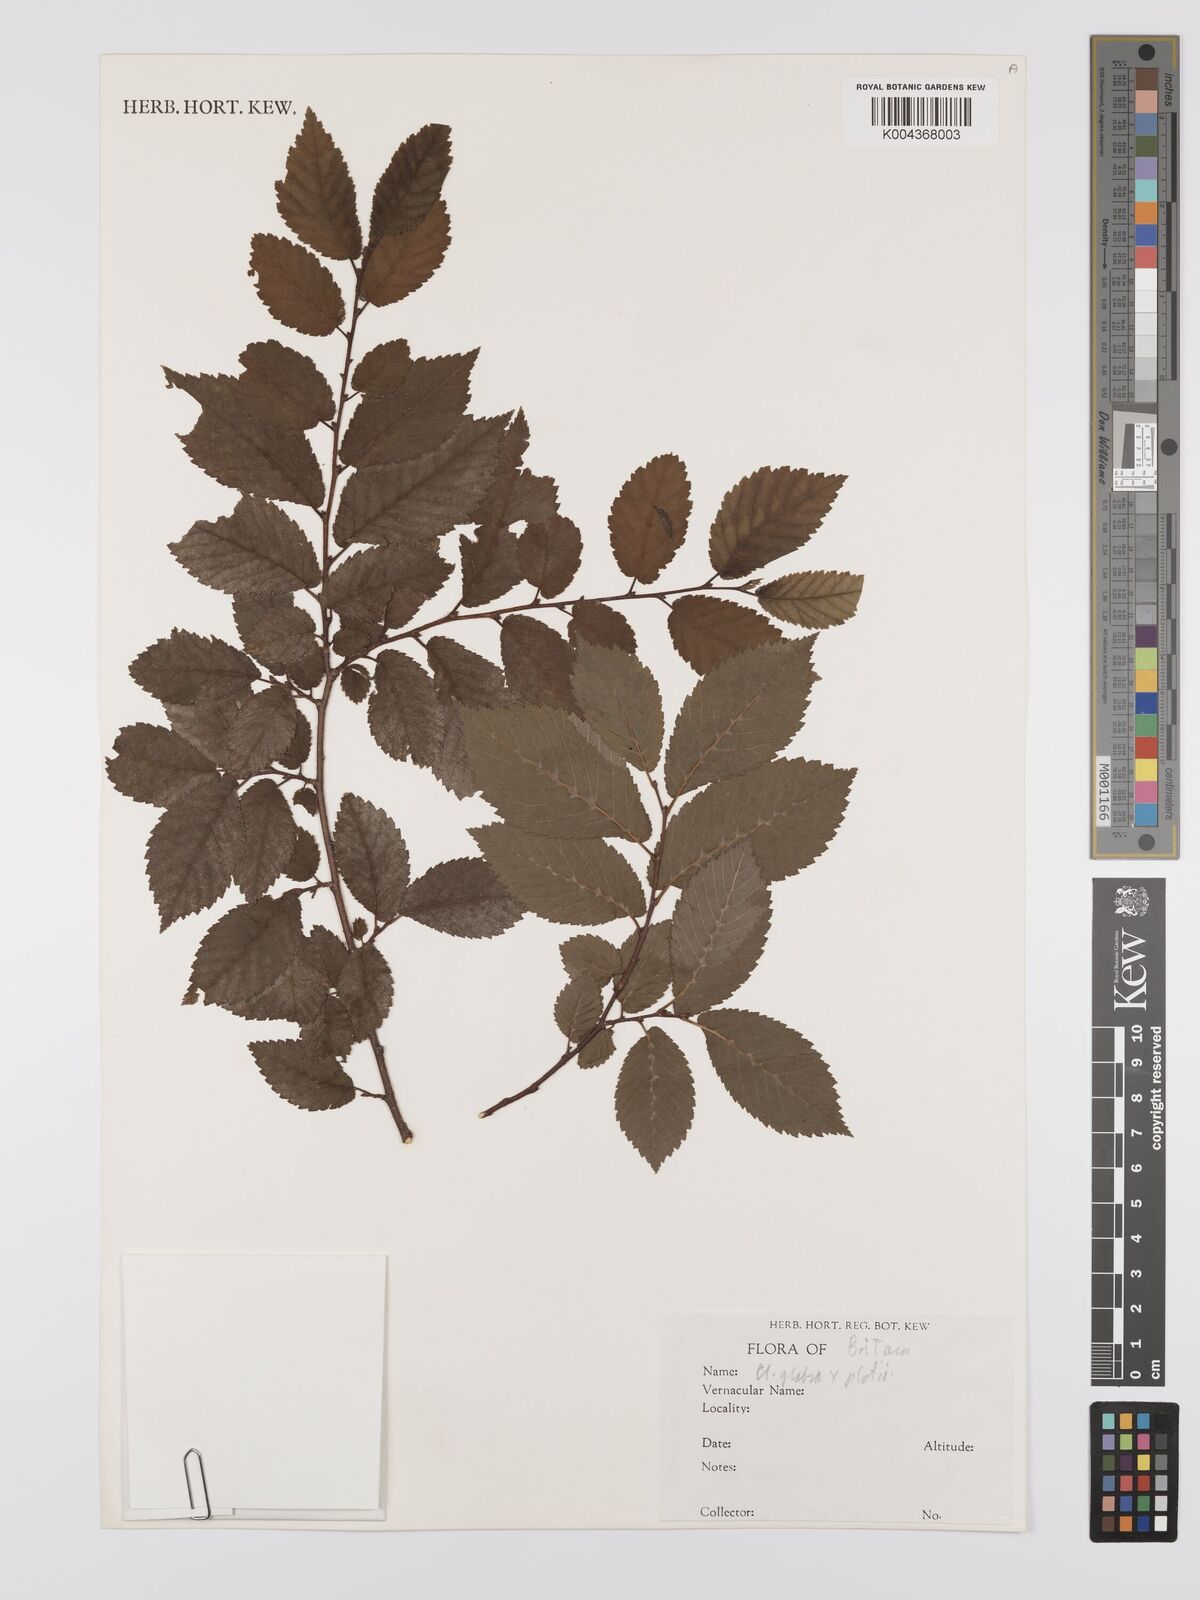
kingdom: Plantae
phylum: Tracheophyta
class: Magnoliopsida
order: Rosales
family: Ulmaceae
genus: Ulmus
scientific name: Ulmus
